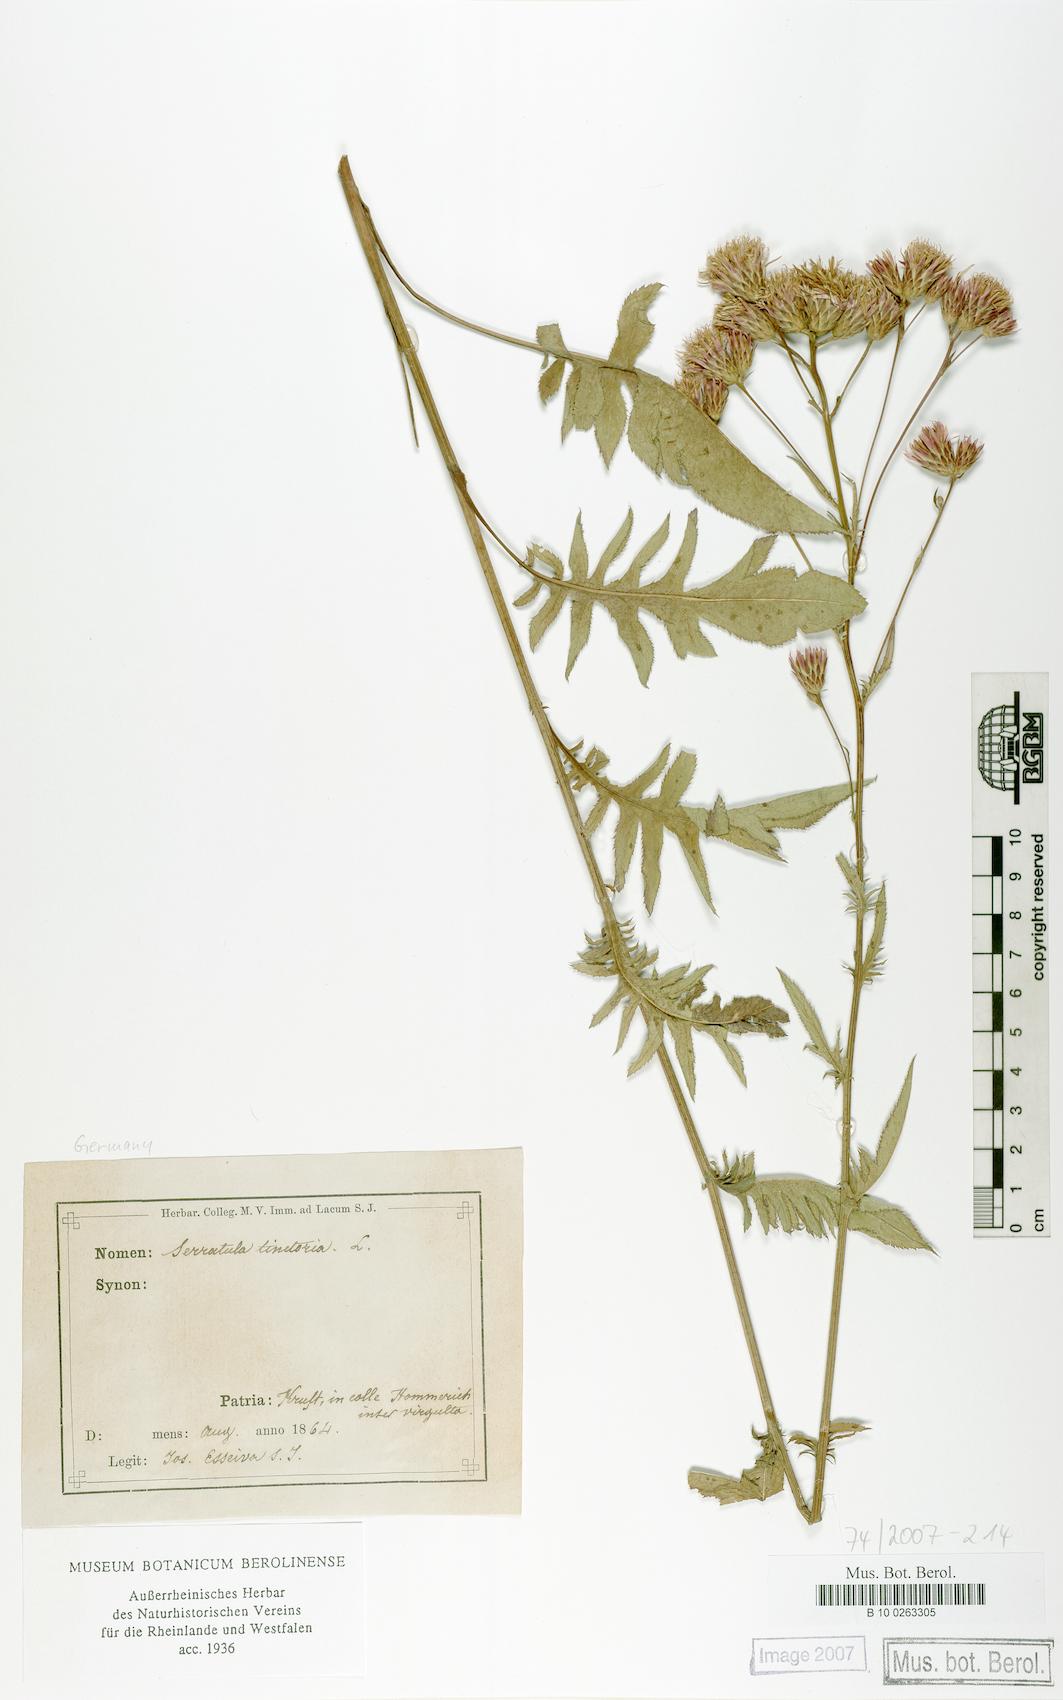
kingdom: Plantae
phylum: Tracheophyta
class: Magnoliopsida
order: Asterales
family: Asteraceae
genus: Serratula
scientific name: Serratula tinctoria
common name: Saw-wort
